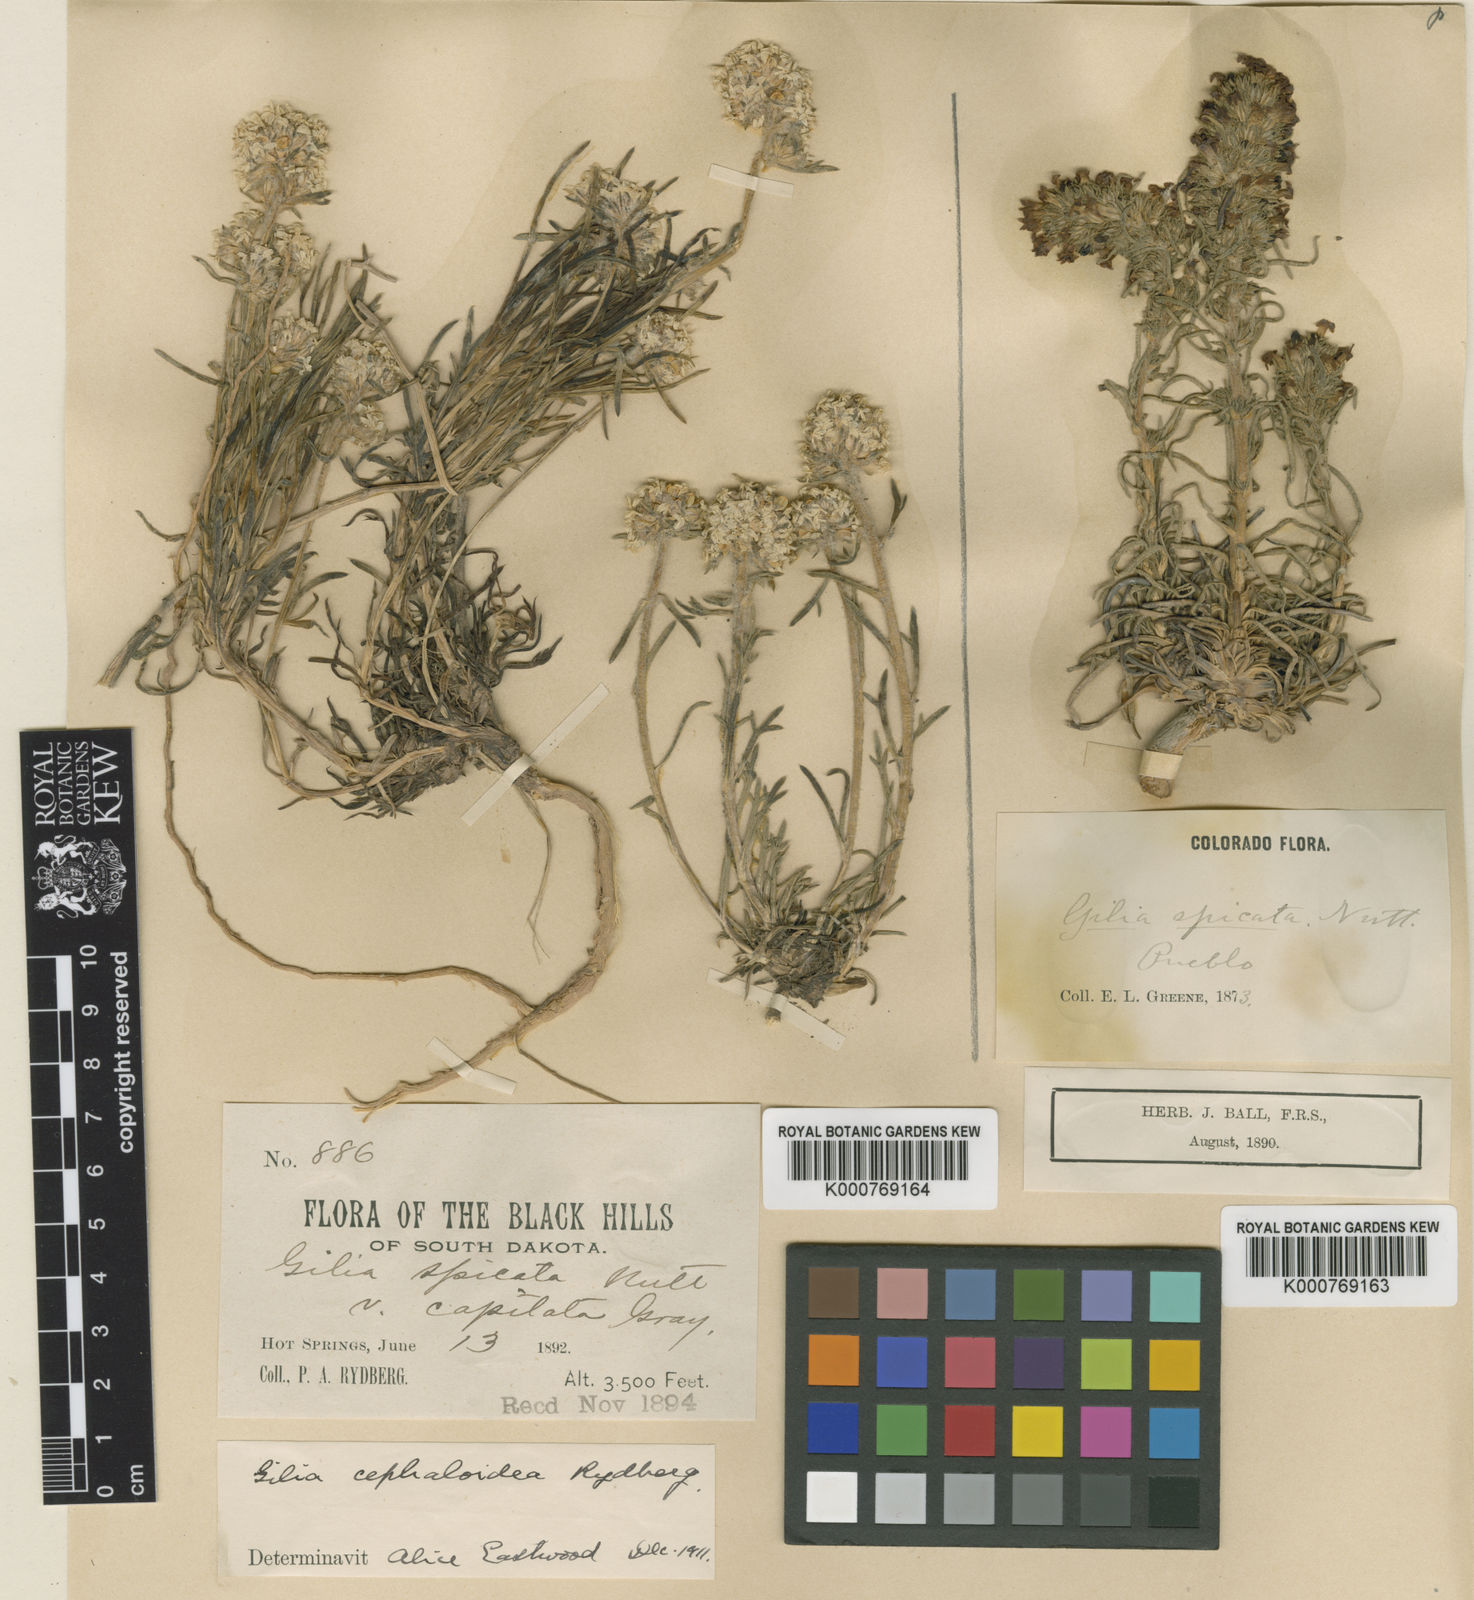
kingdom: Plantae
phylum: Tracheophyta
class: Magnoliopsida
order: Ericales
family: Polemoniaceae
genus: Ipomopsis
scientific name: Ipomopsis congesta
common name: Ball-head gilia
